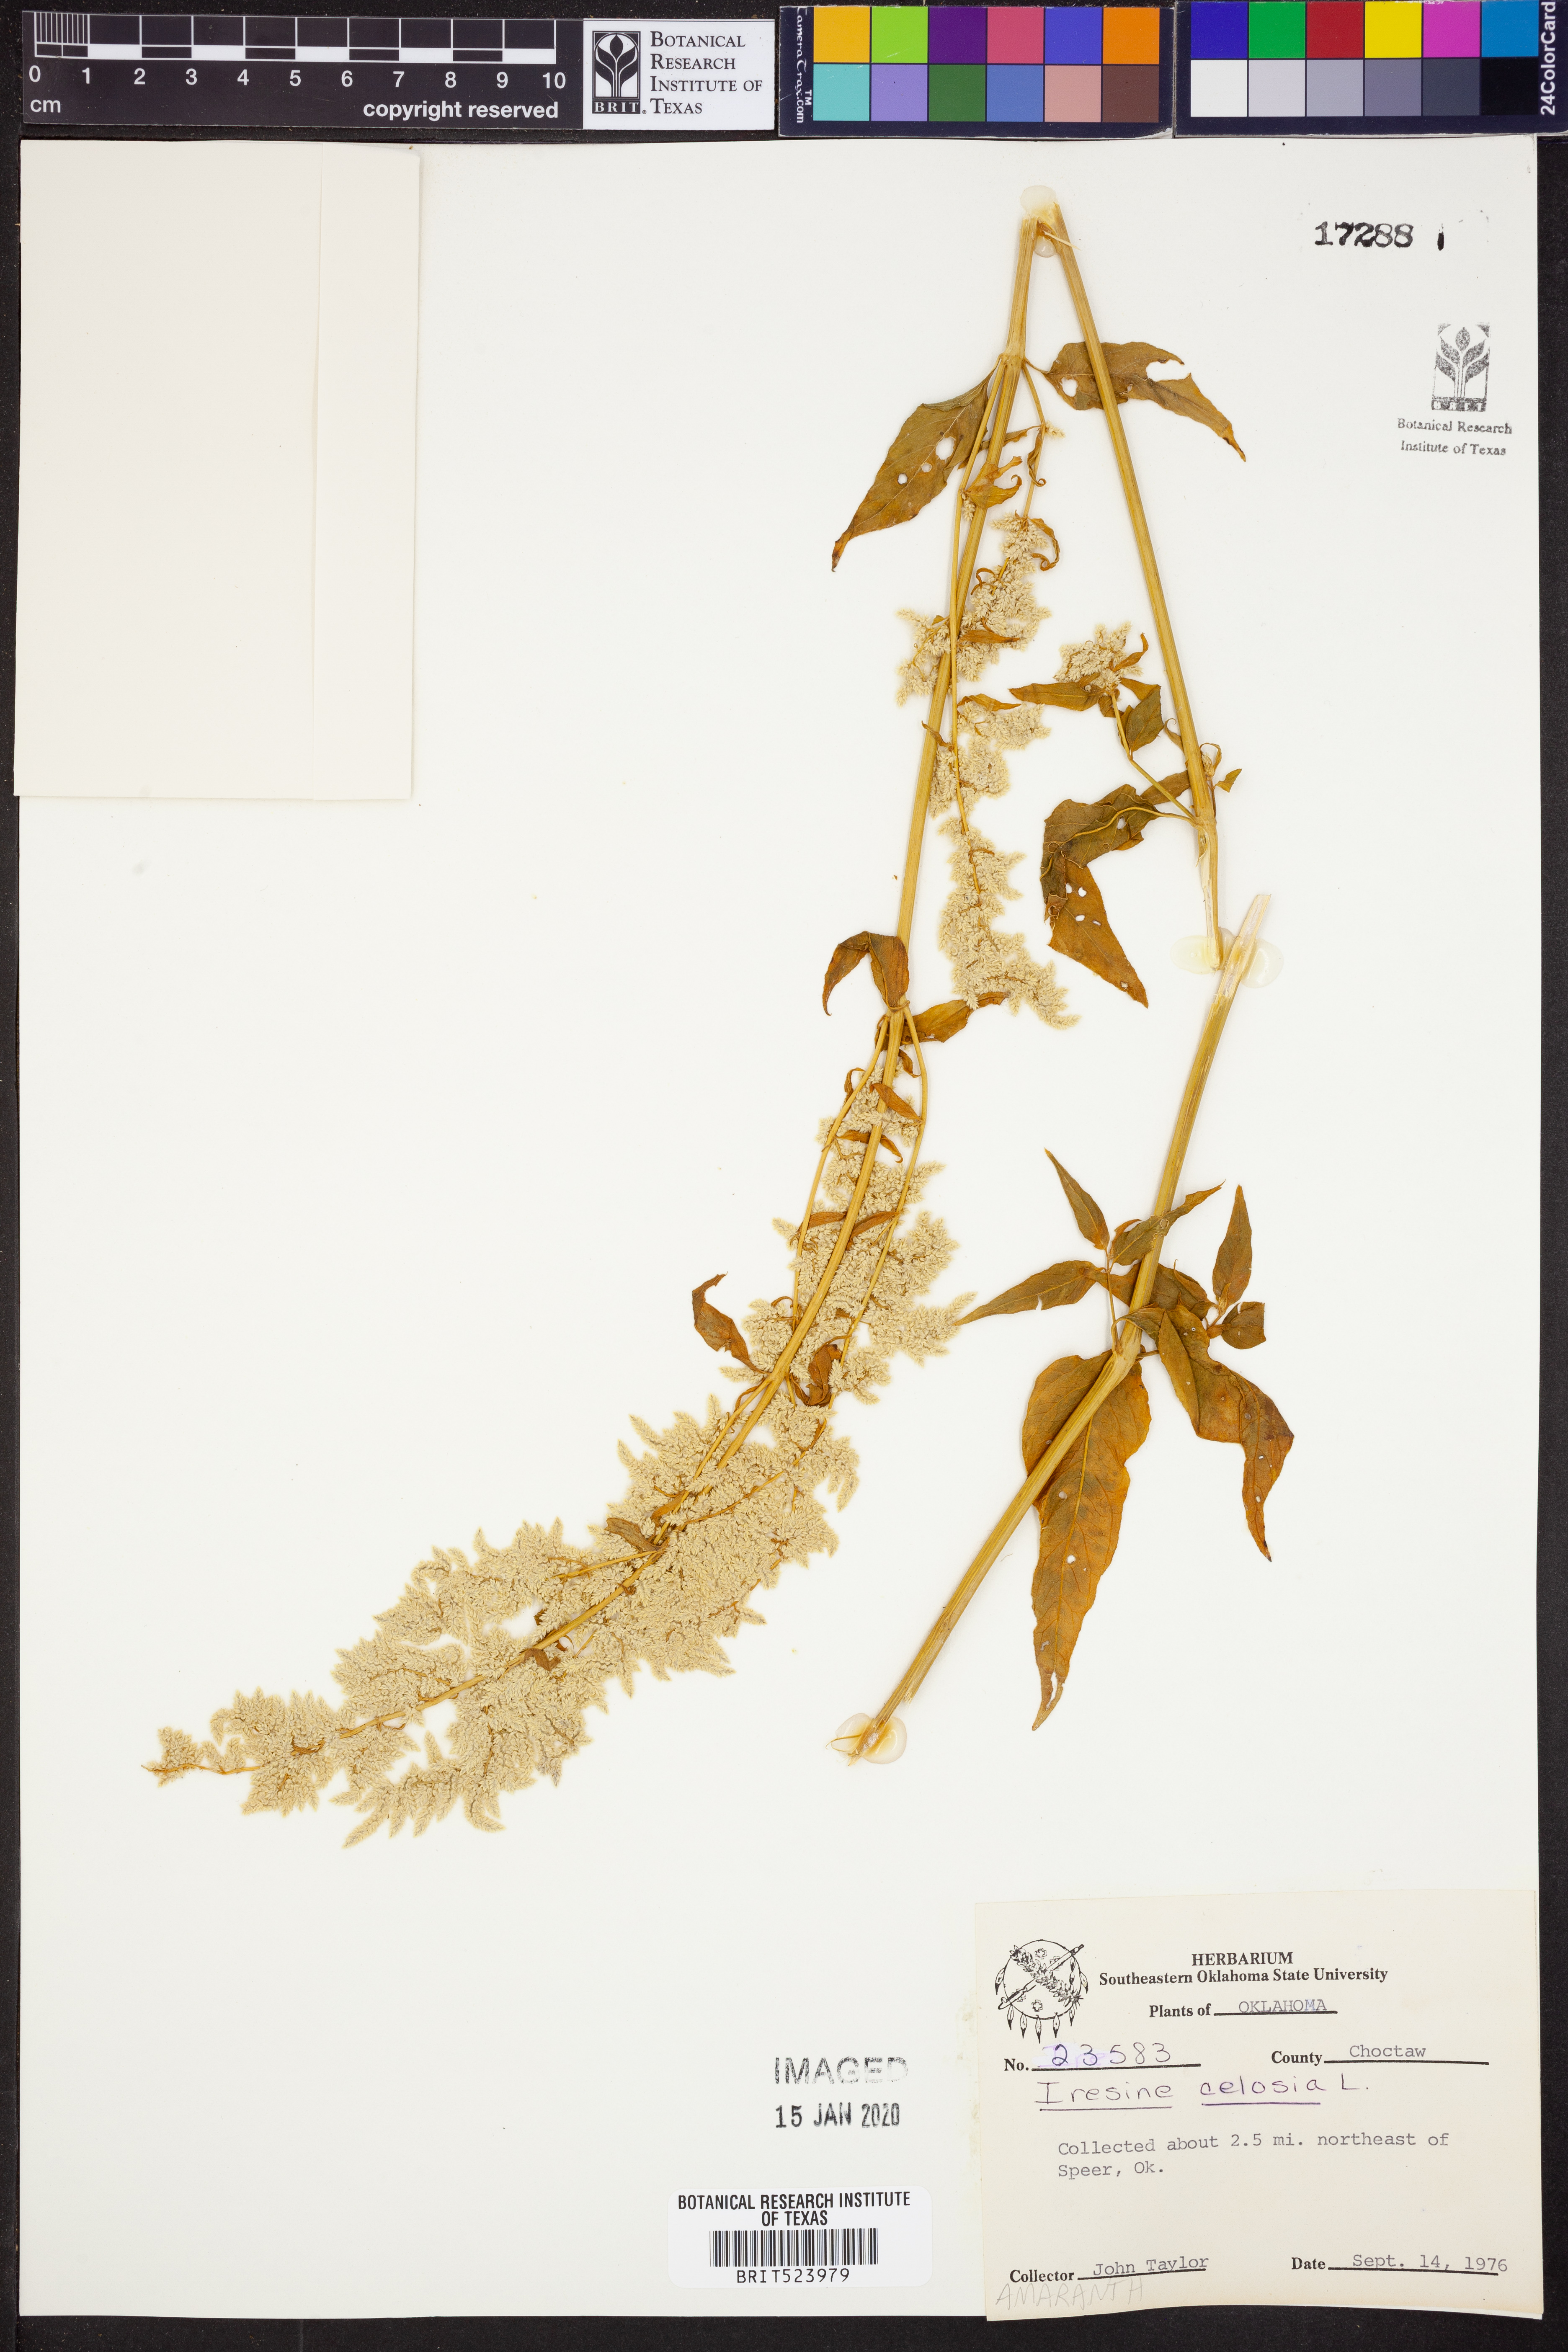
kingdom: Plantae
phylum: Tracheophyta
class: Magnoliopsida
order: Caryophyllales
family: Amaranthaceae
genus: Iresine
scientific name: Iresine rhizomatosa
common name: Juda's-bush
